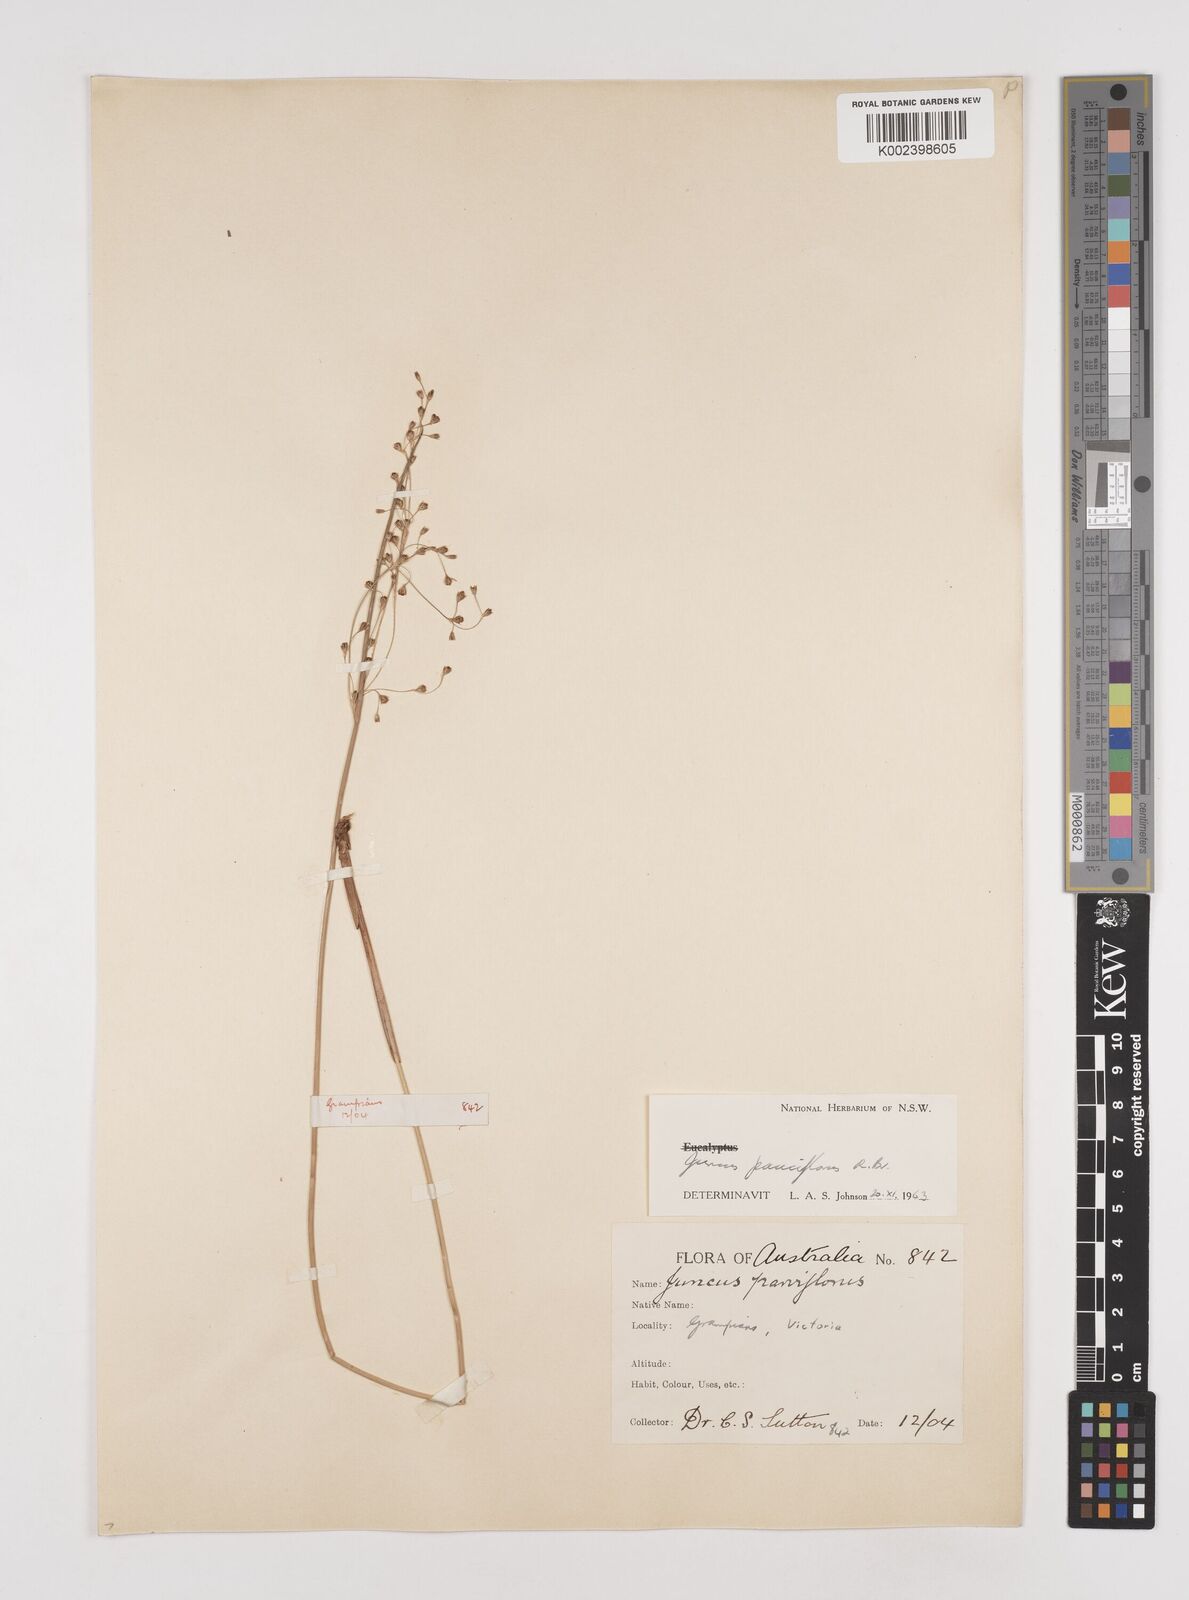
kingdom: Plantae
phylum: Tracheophyta
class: Liliopsida
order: Poales
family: Juncaceae
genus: Juncus
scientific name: Juncus pauciflorus
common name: Loose-flowered rush
